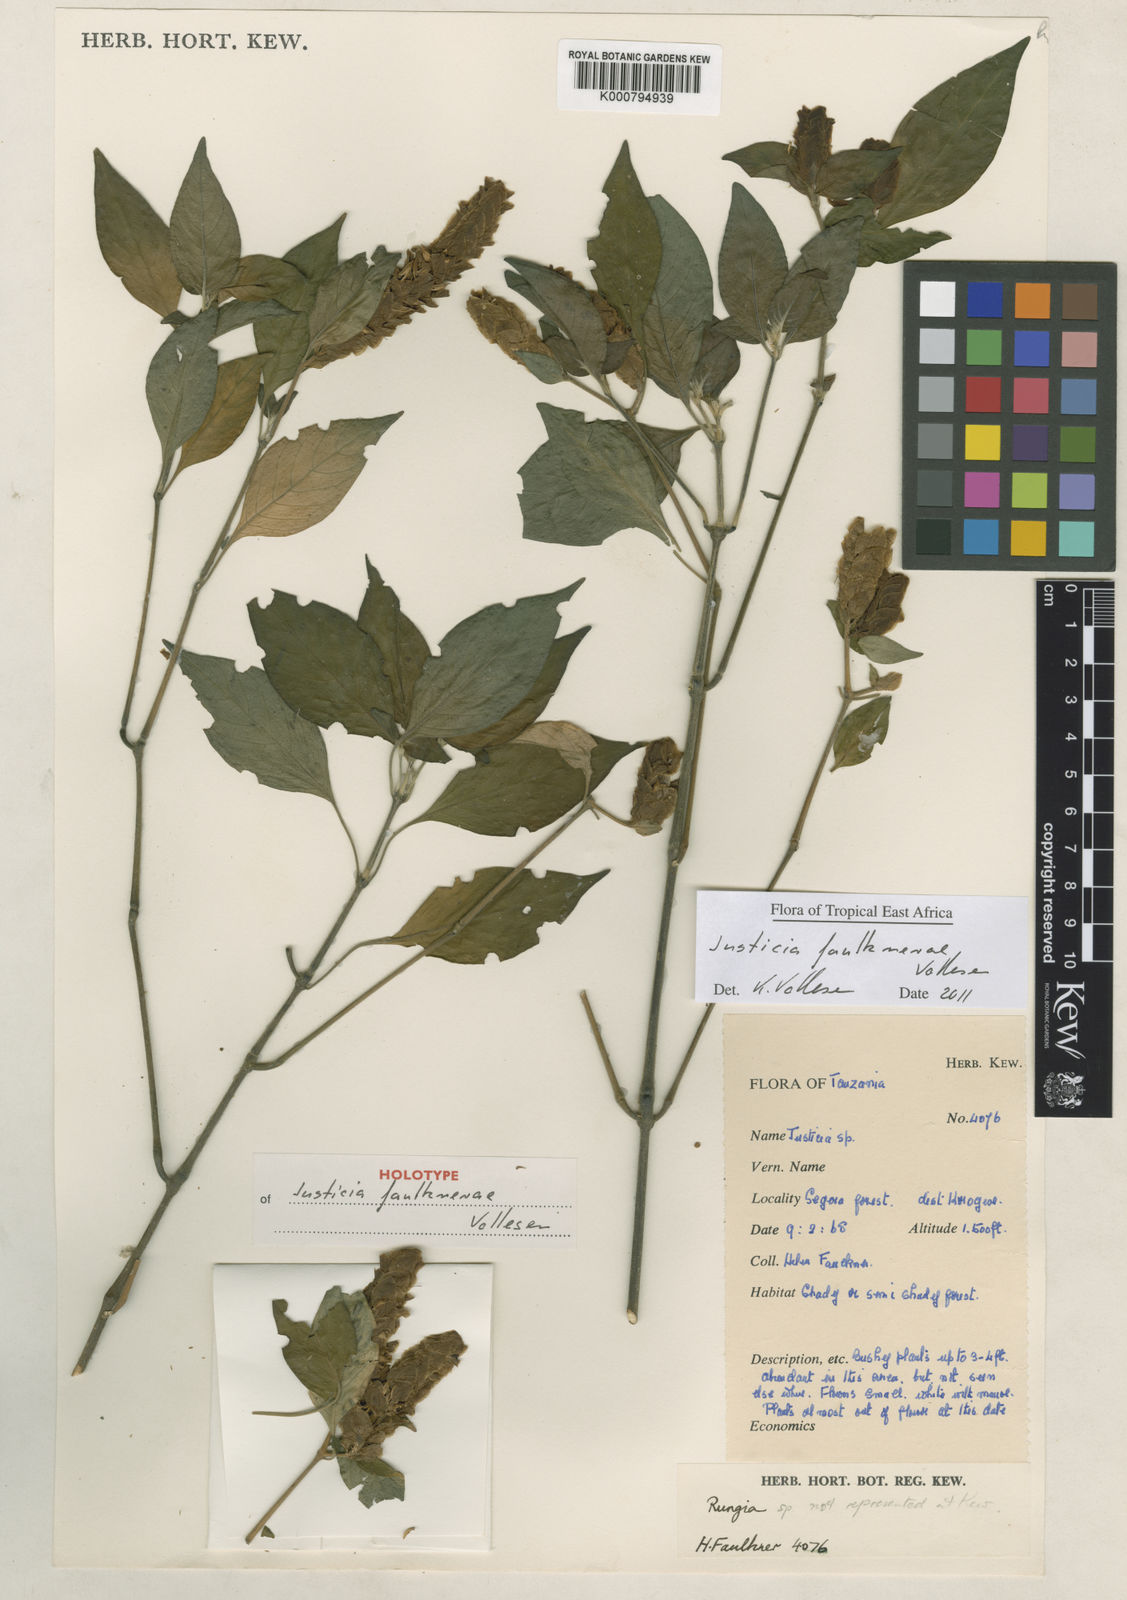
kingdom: Plantae
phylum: Tracheophyta
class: Magnoliopsida
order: Lamiales
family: Acanthaceae
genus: Justicia
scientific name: Justicia faulknerae
